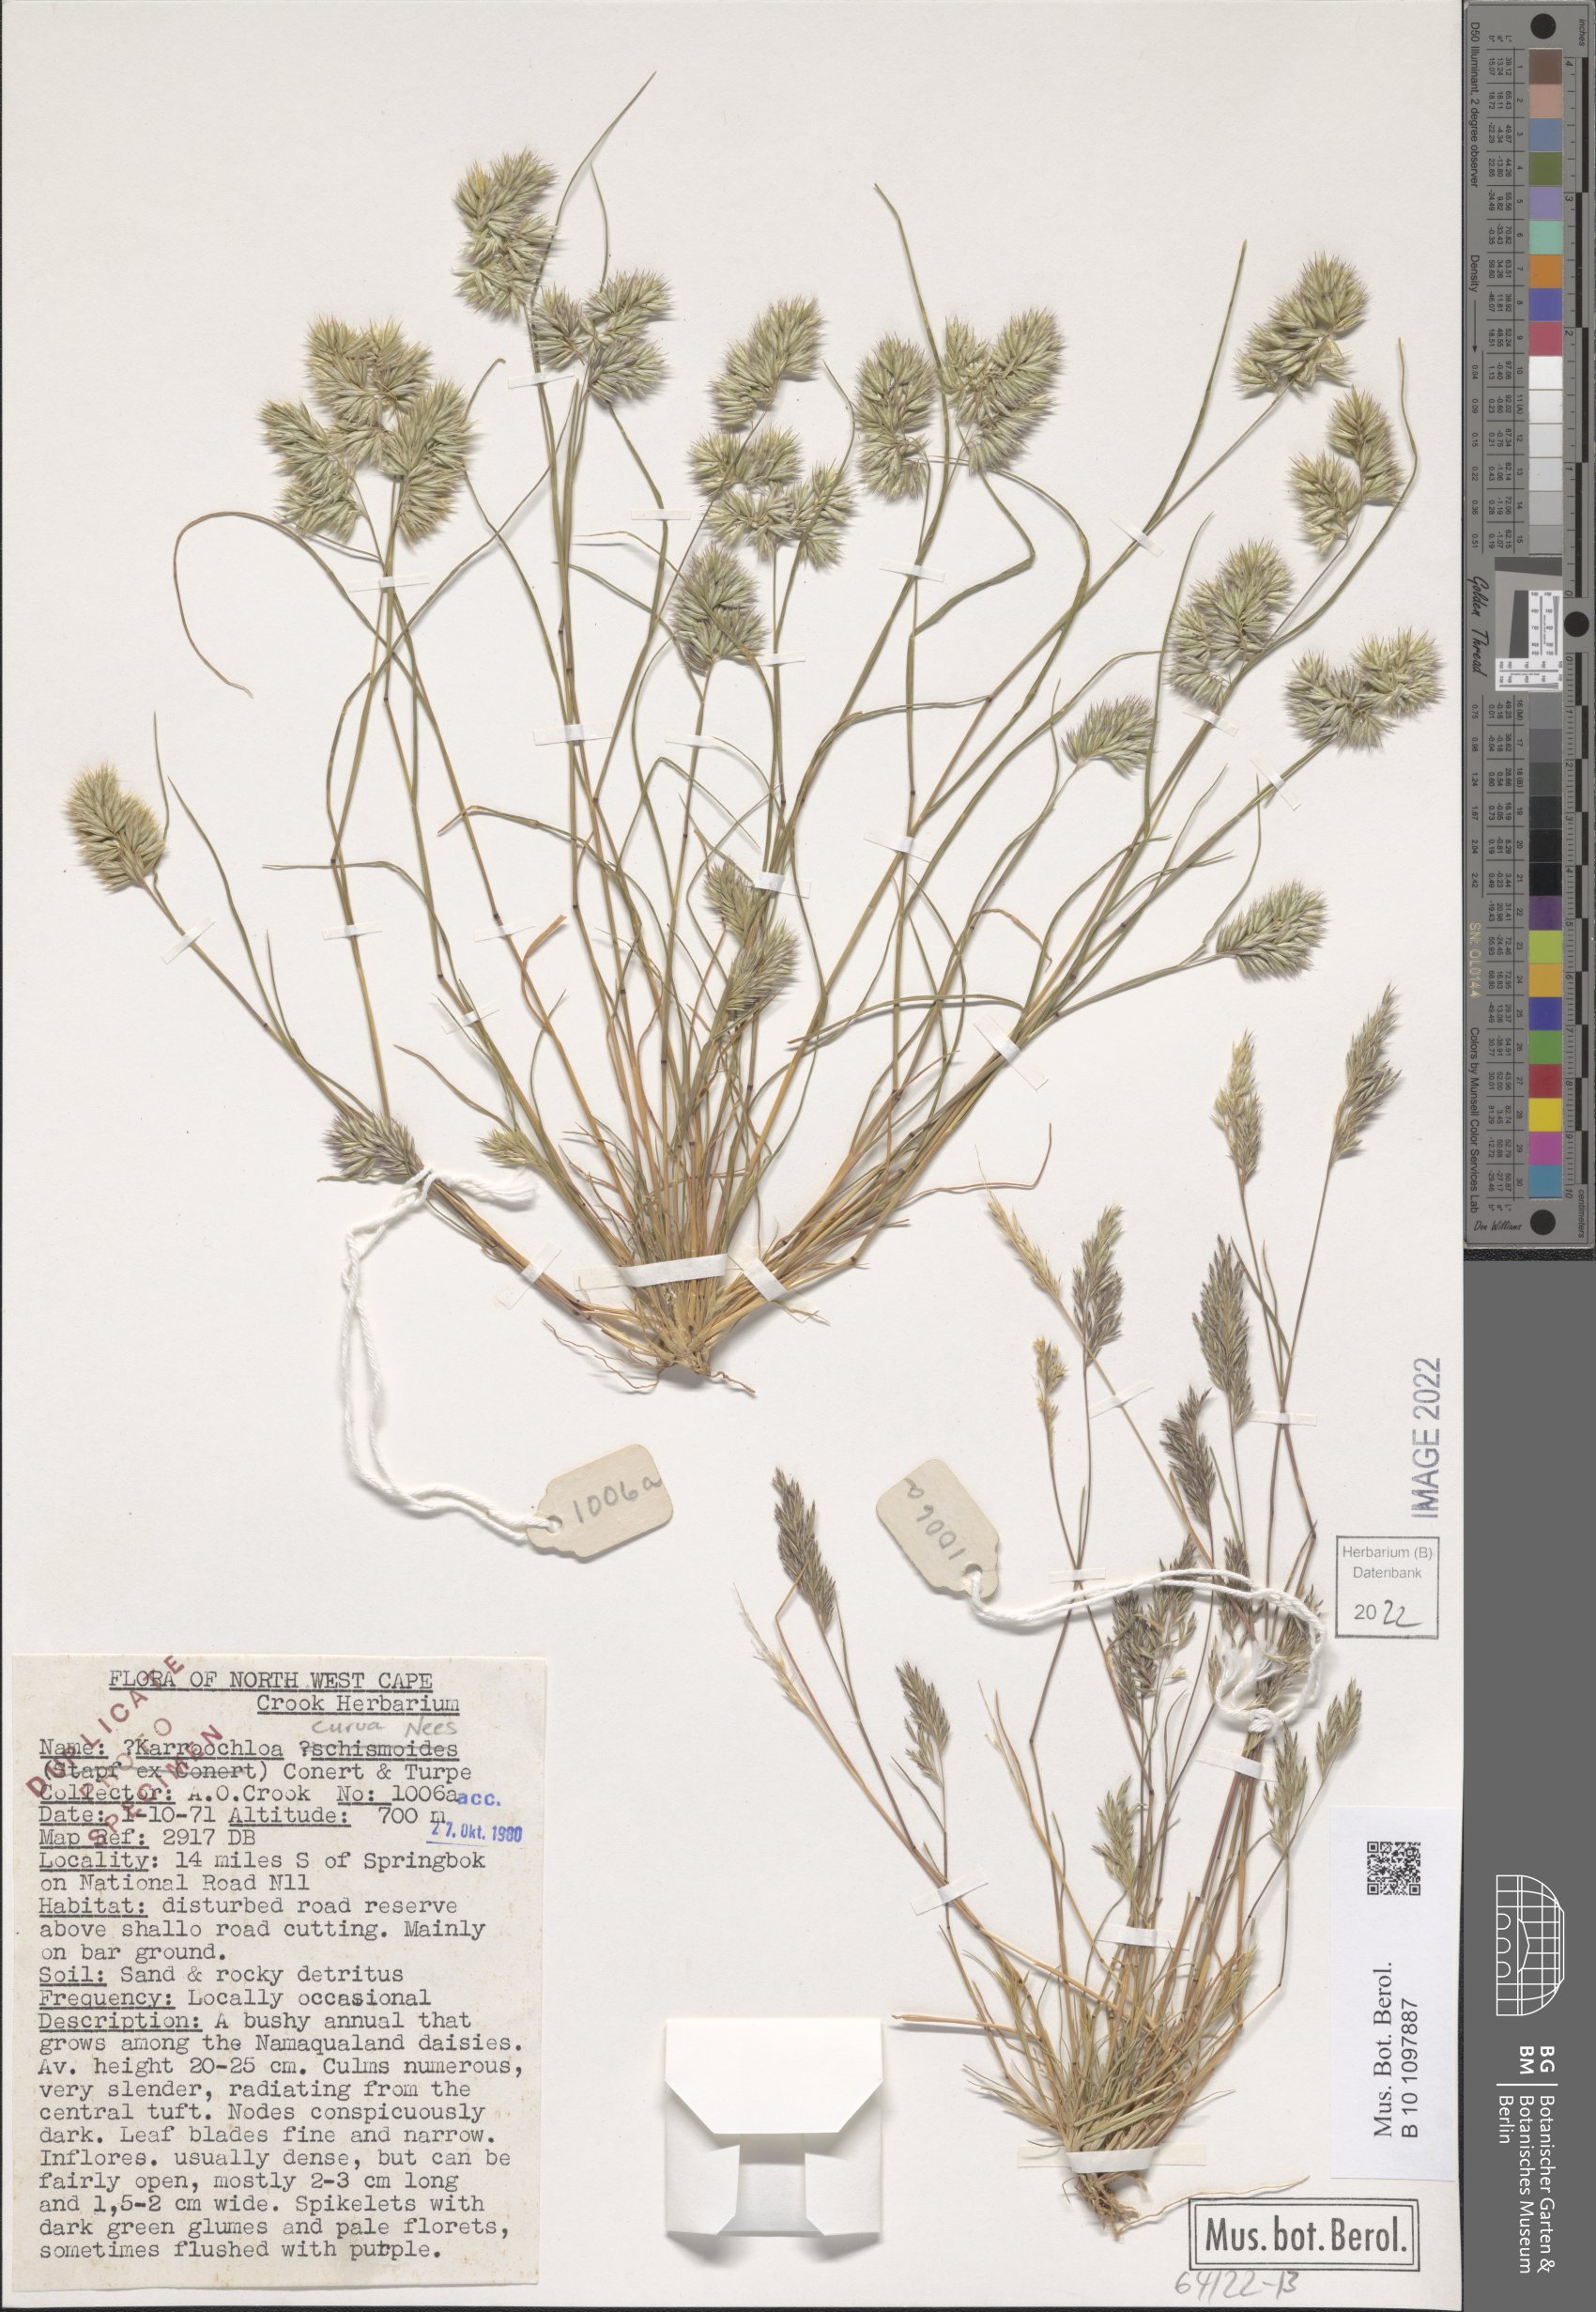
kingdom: Plantae
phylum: Tracheophyta
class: Liliopsida
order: Poales
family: Poaceae
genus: Tribolium
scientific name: Tribolium curvum
